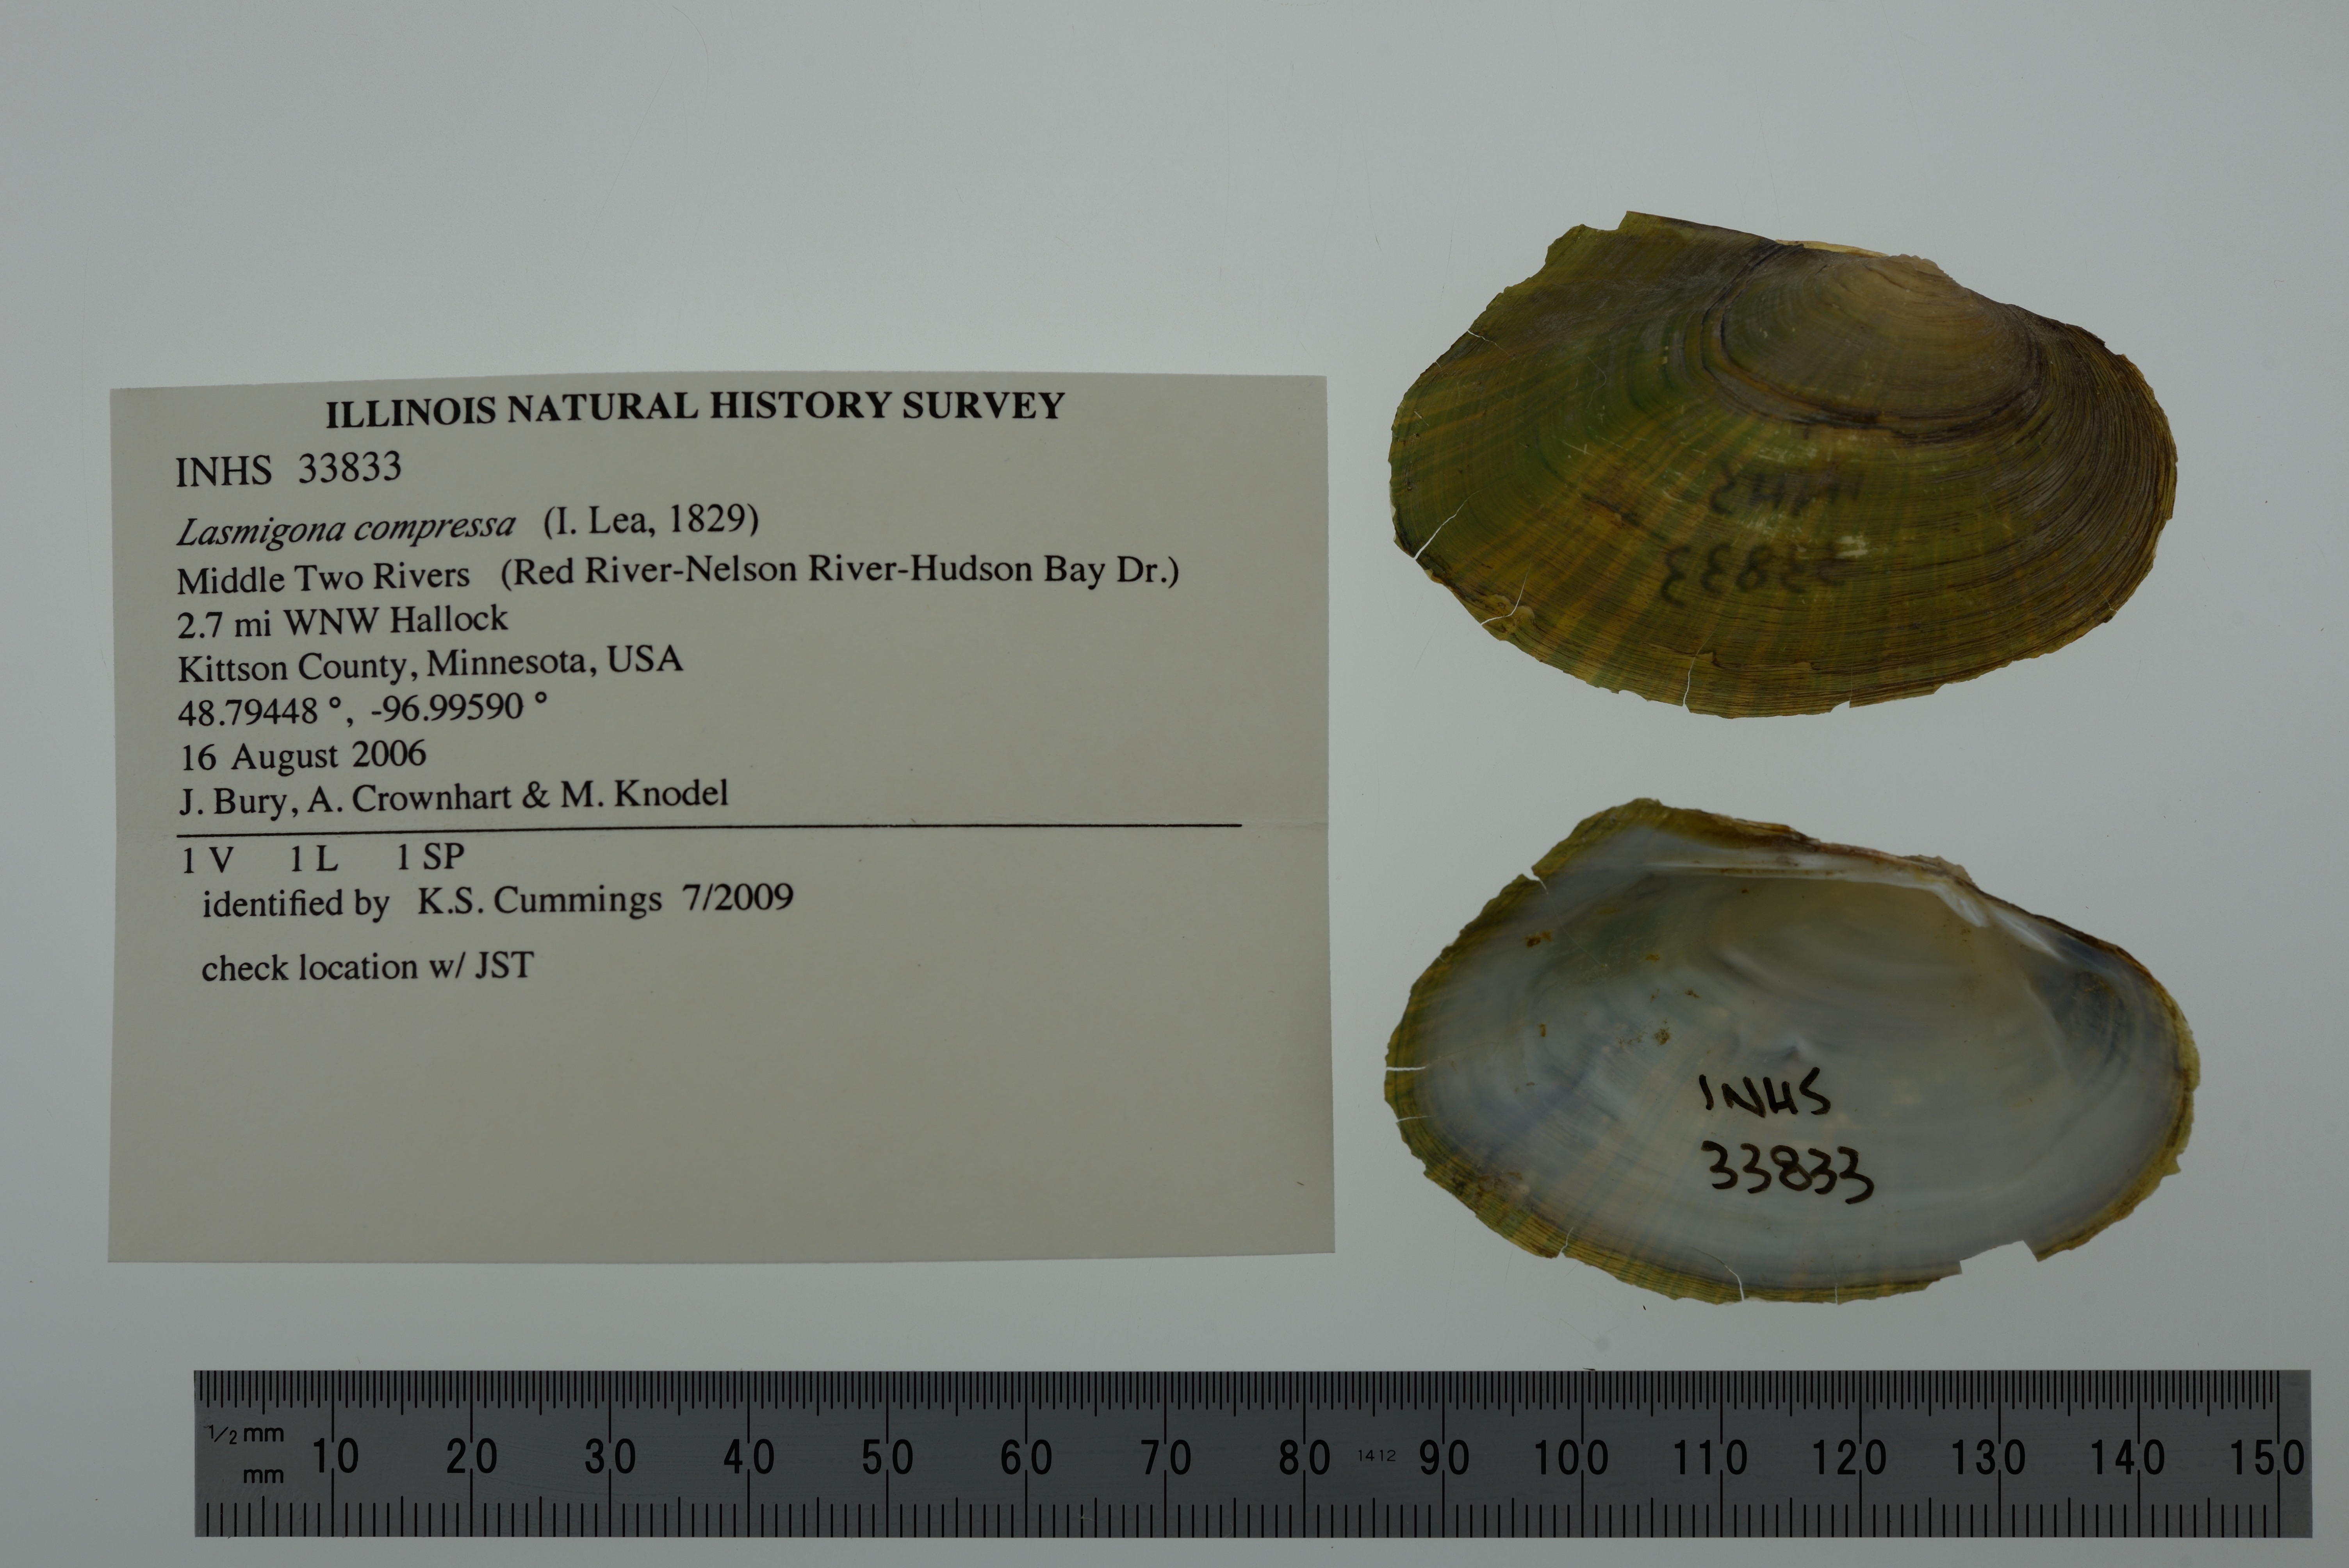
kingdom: Animalia
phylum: Mollusca
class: Bivalvia
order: Unionida
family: Unionidae
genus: Lasmigona
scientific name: Lasmigona compressa
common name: Creek heelsplitter
